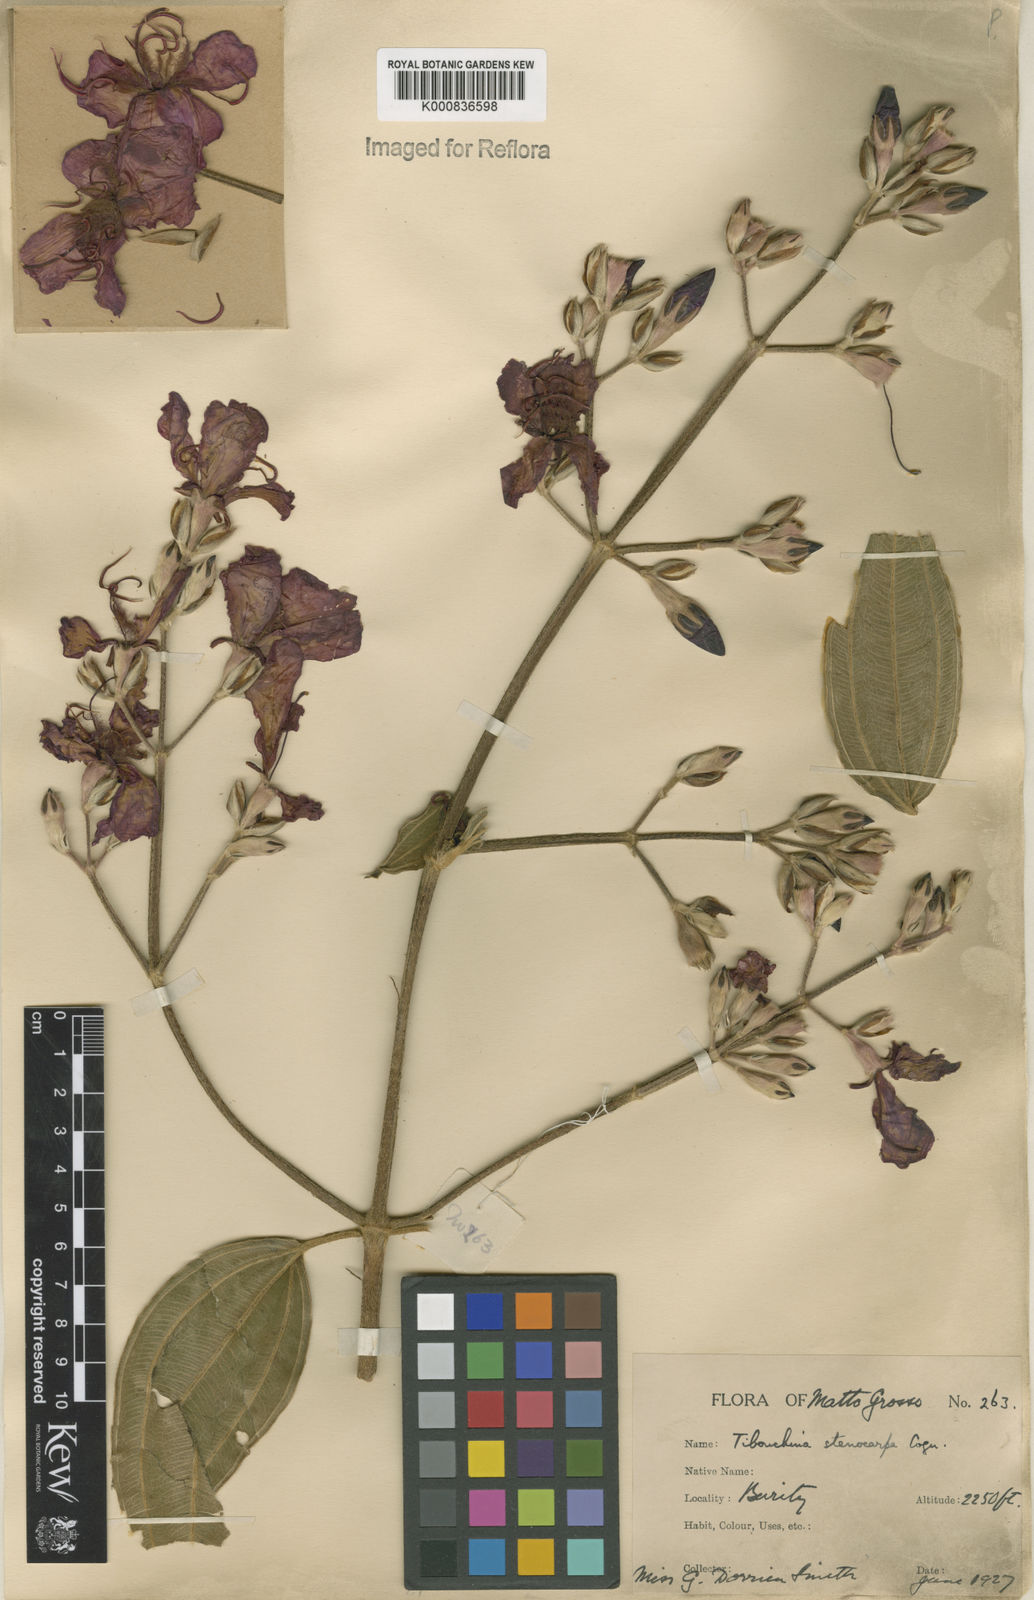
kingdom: Plantae
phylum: Tracheophyta
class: Magnoliopsida
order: Myrtales
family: Melastomataceae
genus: Pleroma
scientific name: Pleroma stenocarpum
